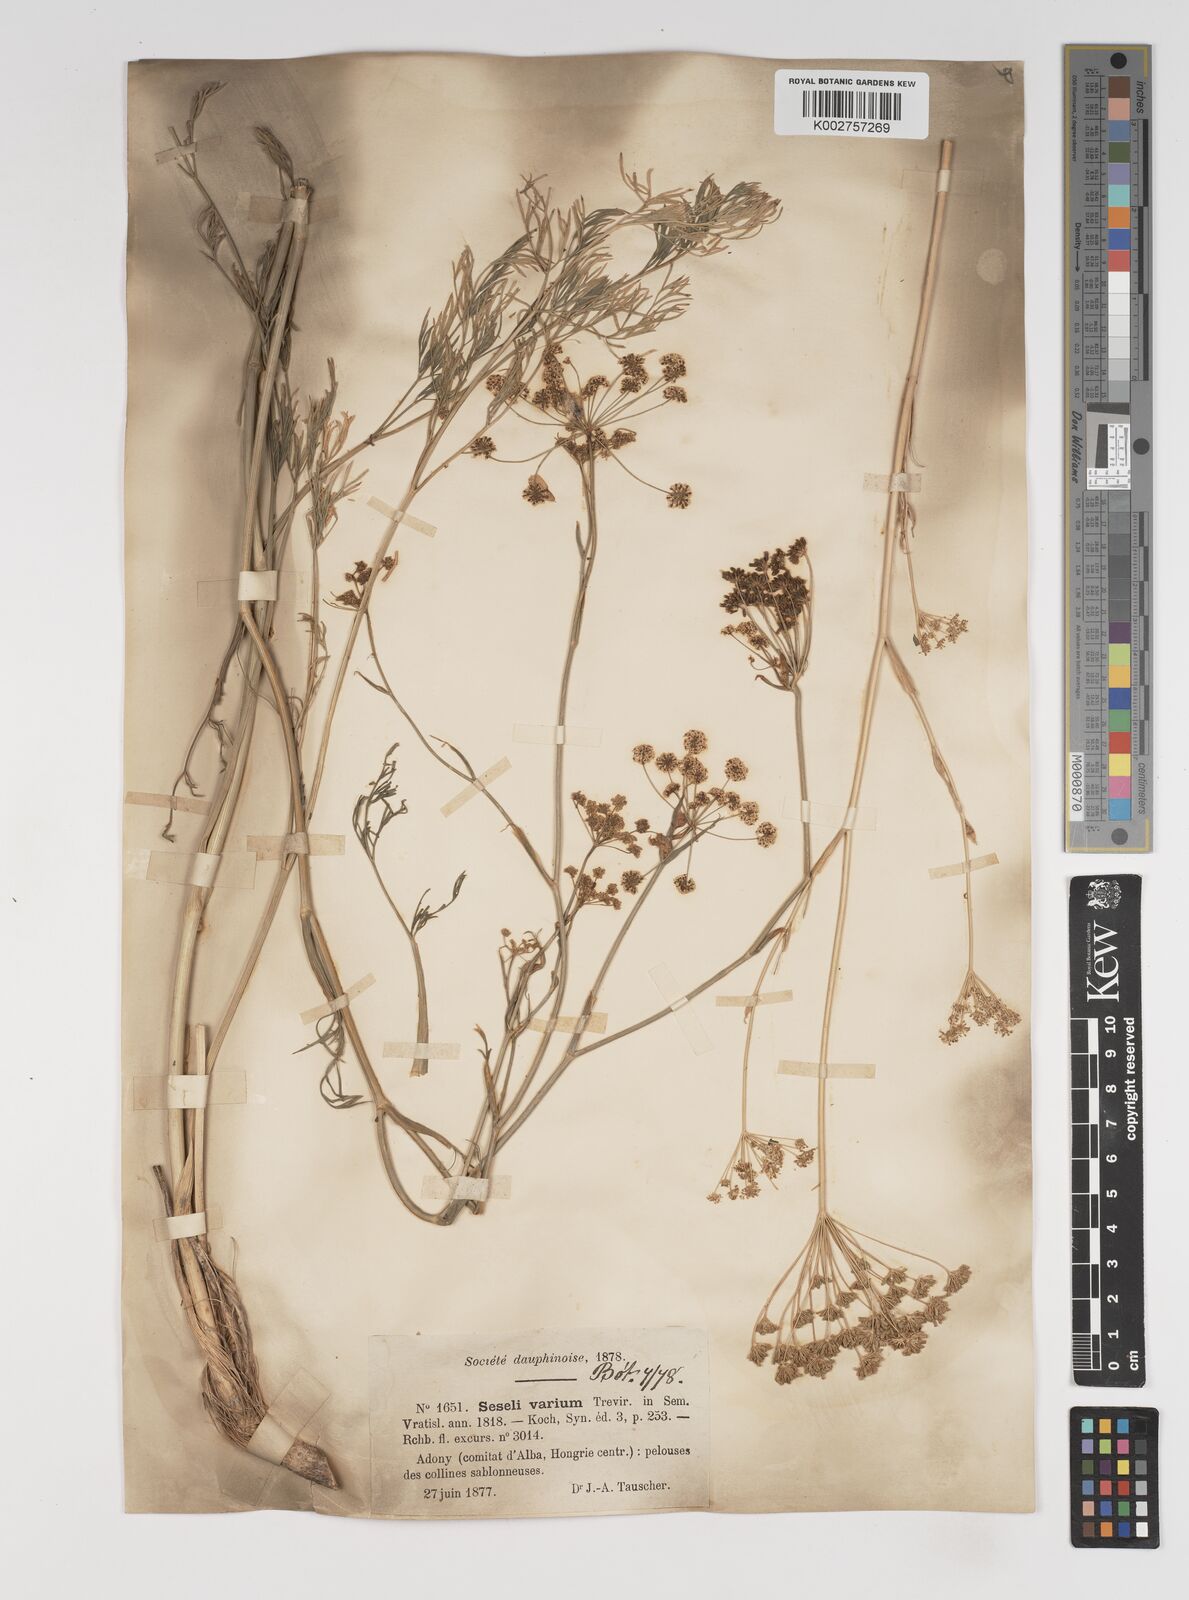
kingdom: Plantae
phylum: Tracheophyta
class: Magnoliopsida
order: Apiales
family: Apiaceae
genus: Seseli
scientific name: Seseli pallasii
